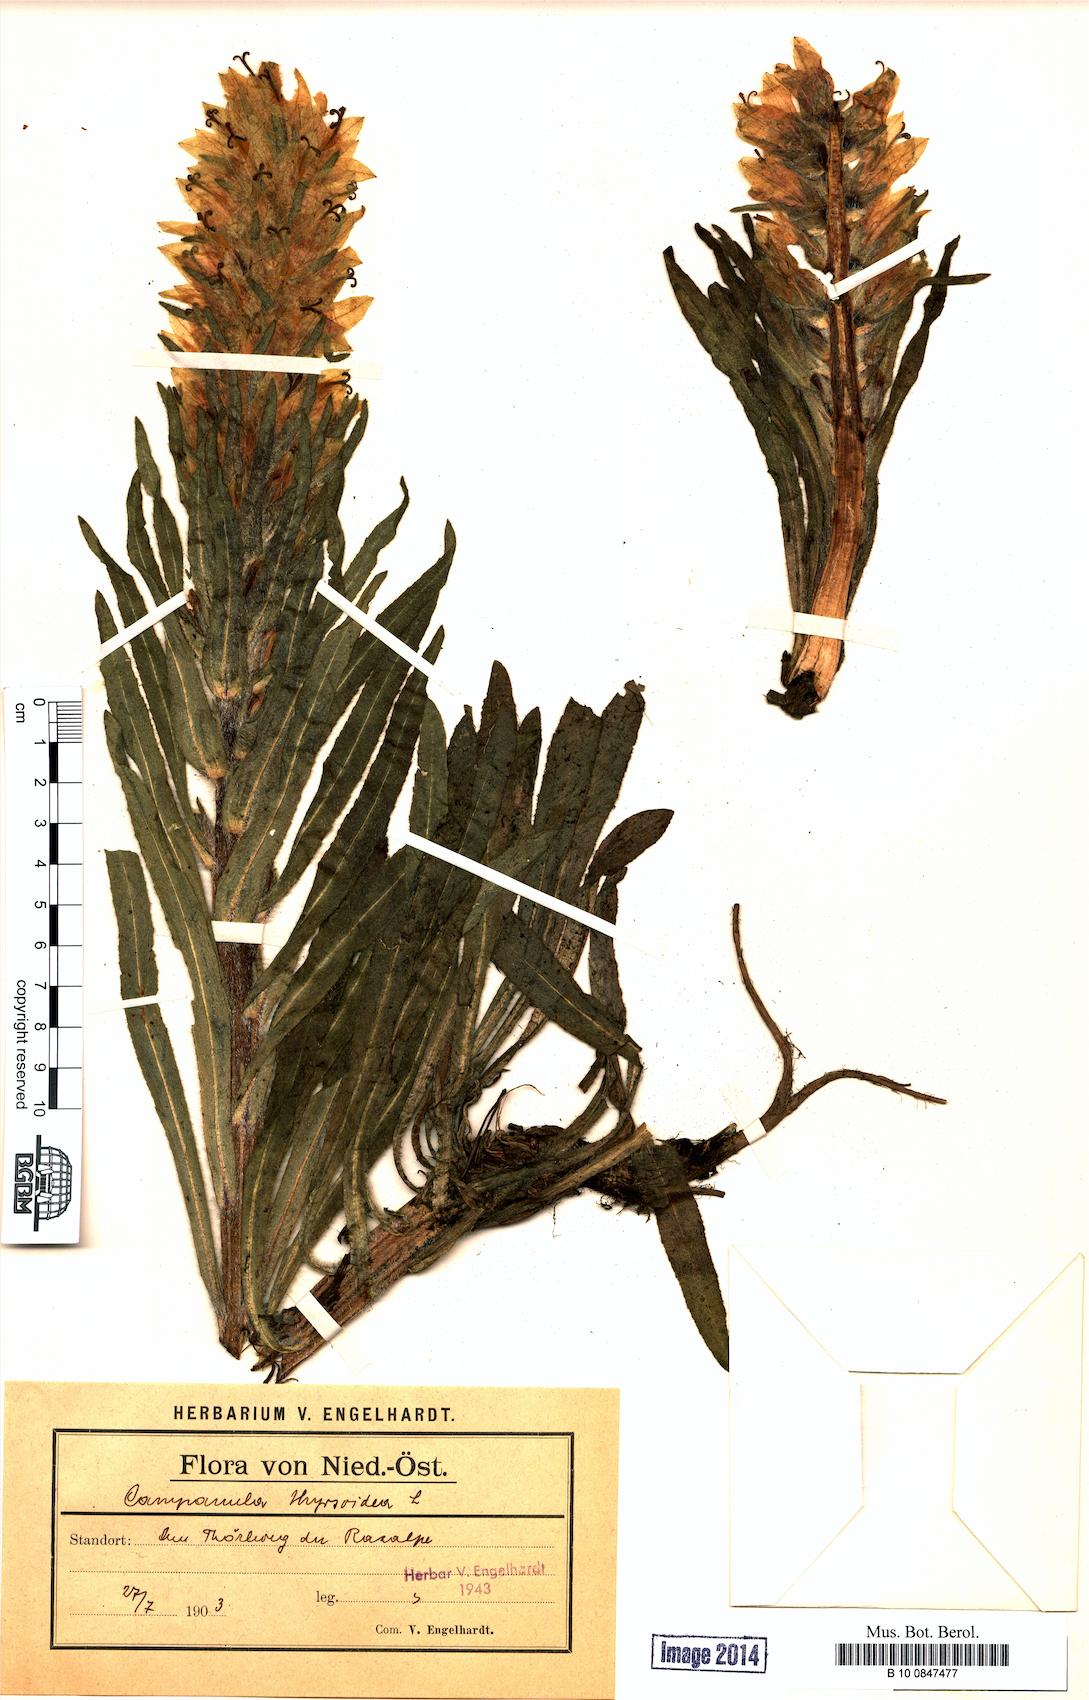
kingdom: Plantae
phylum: Tracheophyta
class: Magnoliopsida
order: Asterales
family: Campanulaceae
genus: Campanula
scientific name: Campanula thyrsoides
